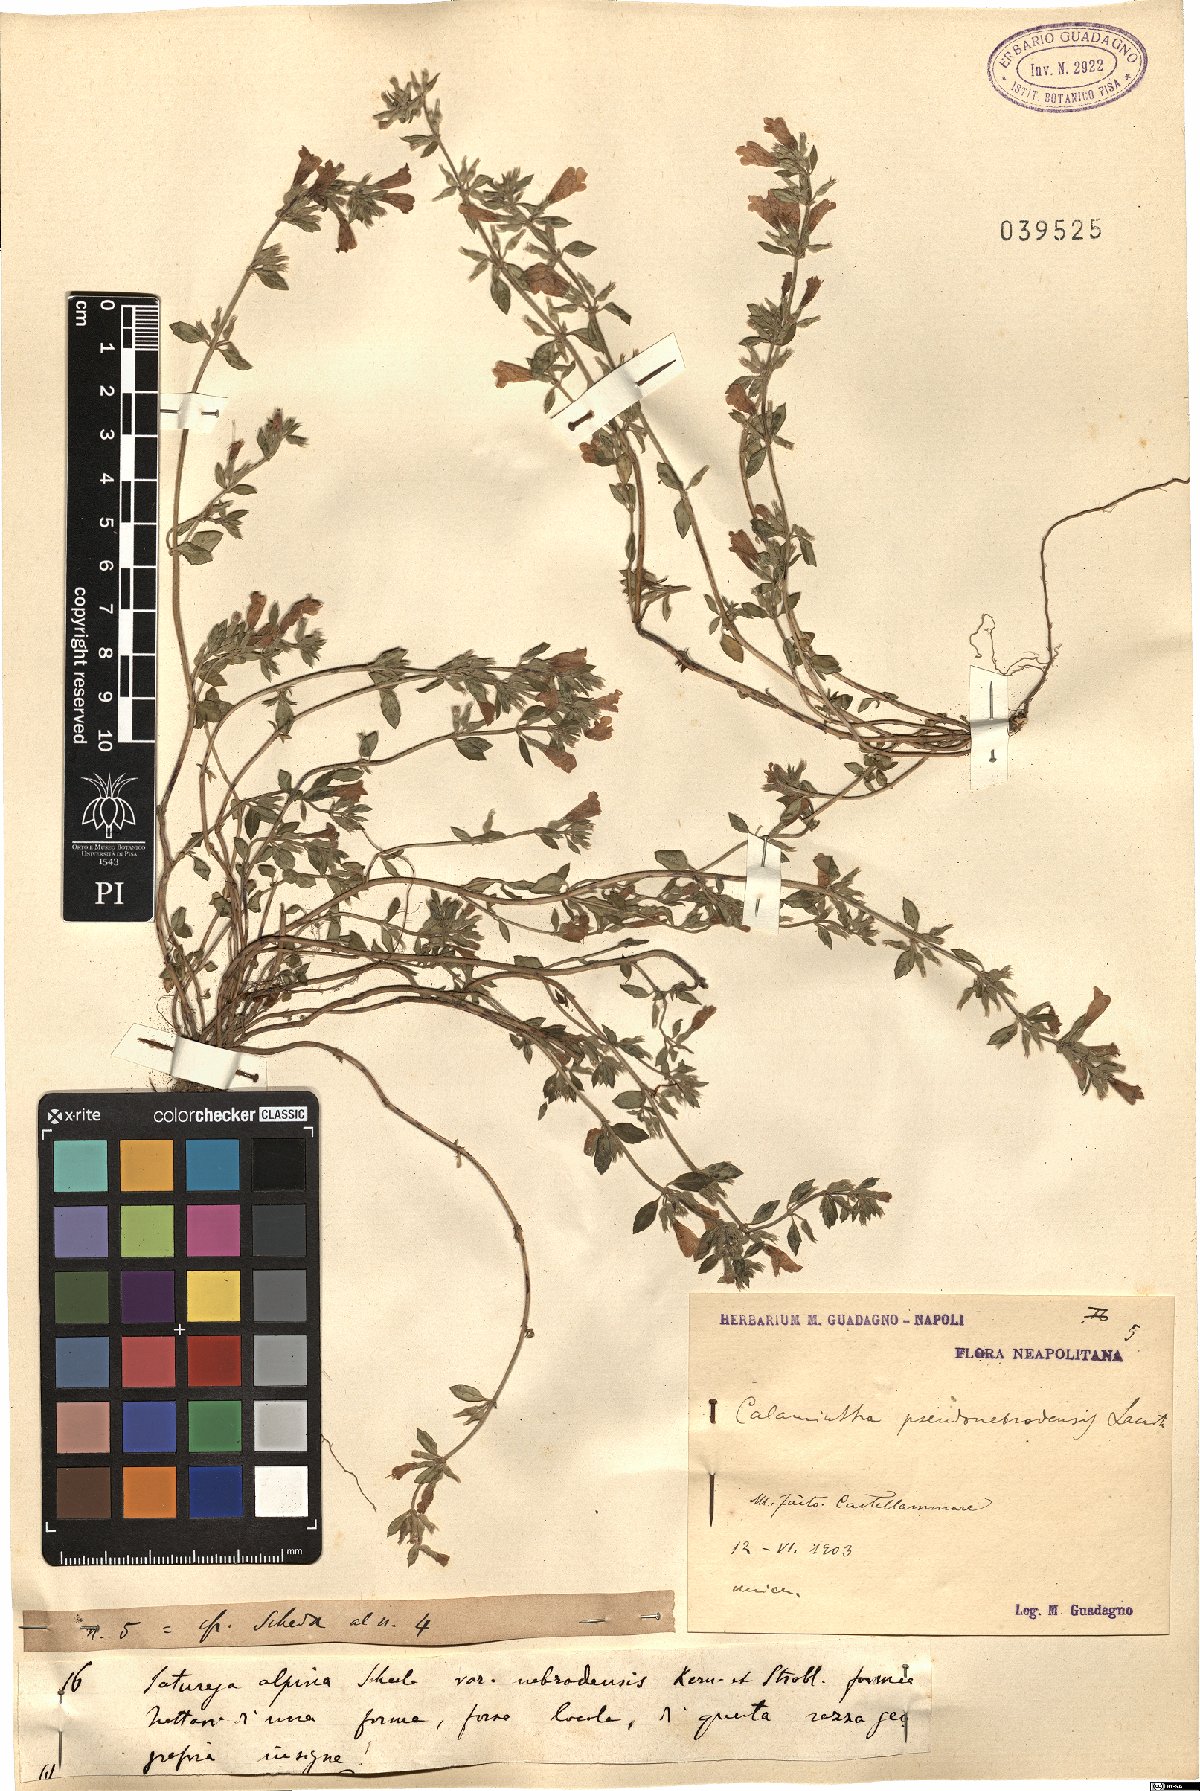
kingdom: Plantae
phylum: Tracheophyta
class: Magnoliopsida
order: Lamiales
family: Lamiaceae
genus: Calamintha
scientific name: Calamintha
